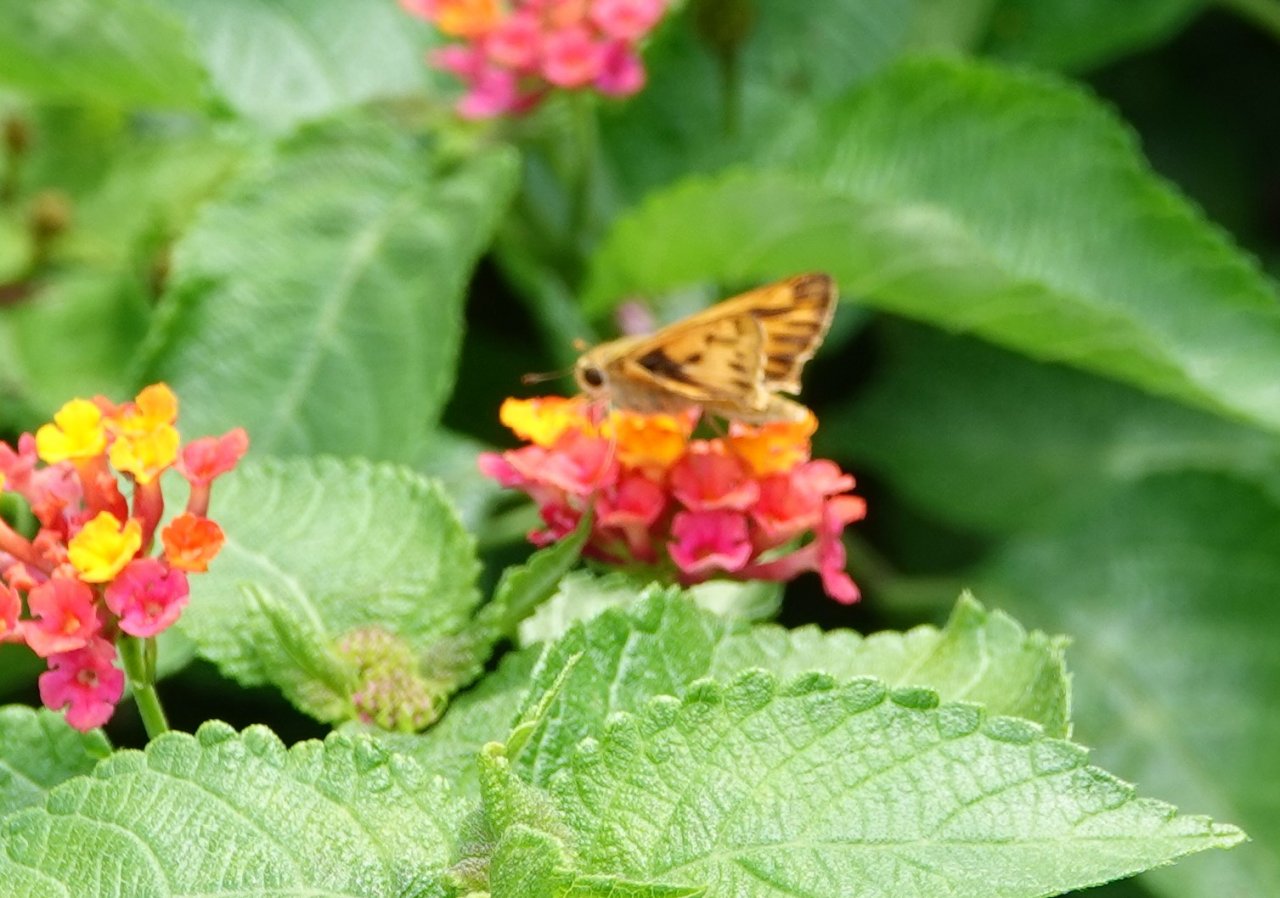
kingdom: Animalia
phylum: Arthropoda
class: Insecta
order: Lepidoptera
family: Hesperiidae
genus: Hylephila
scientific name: Hylephila phyleus
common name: Fiery Skipper
